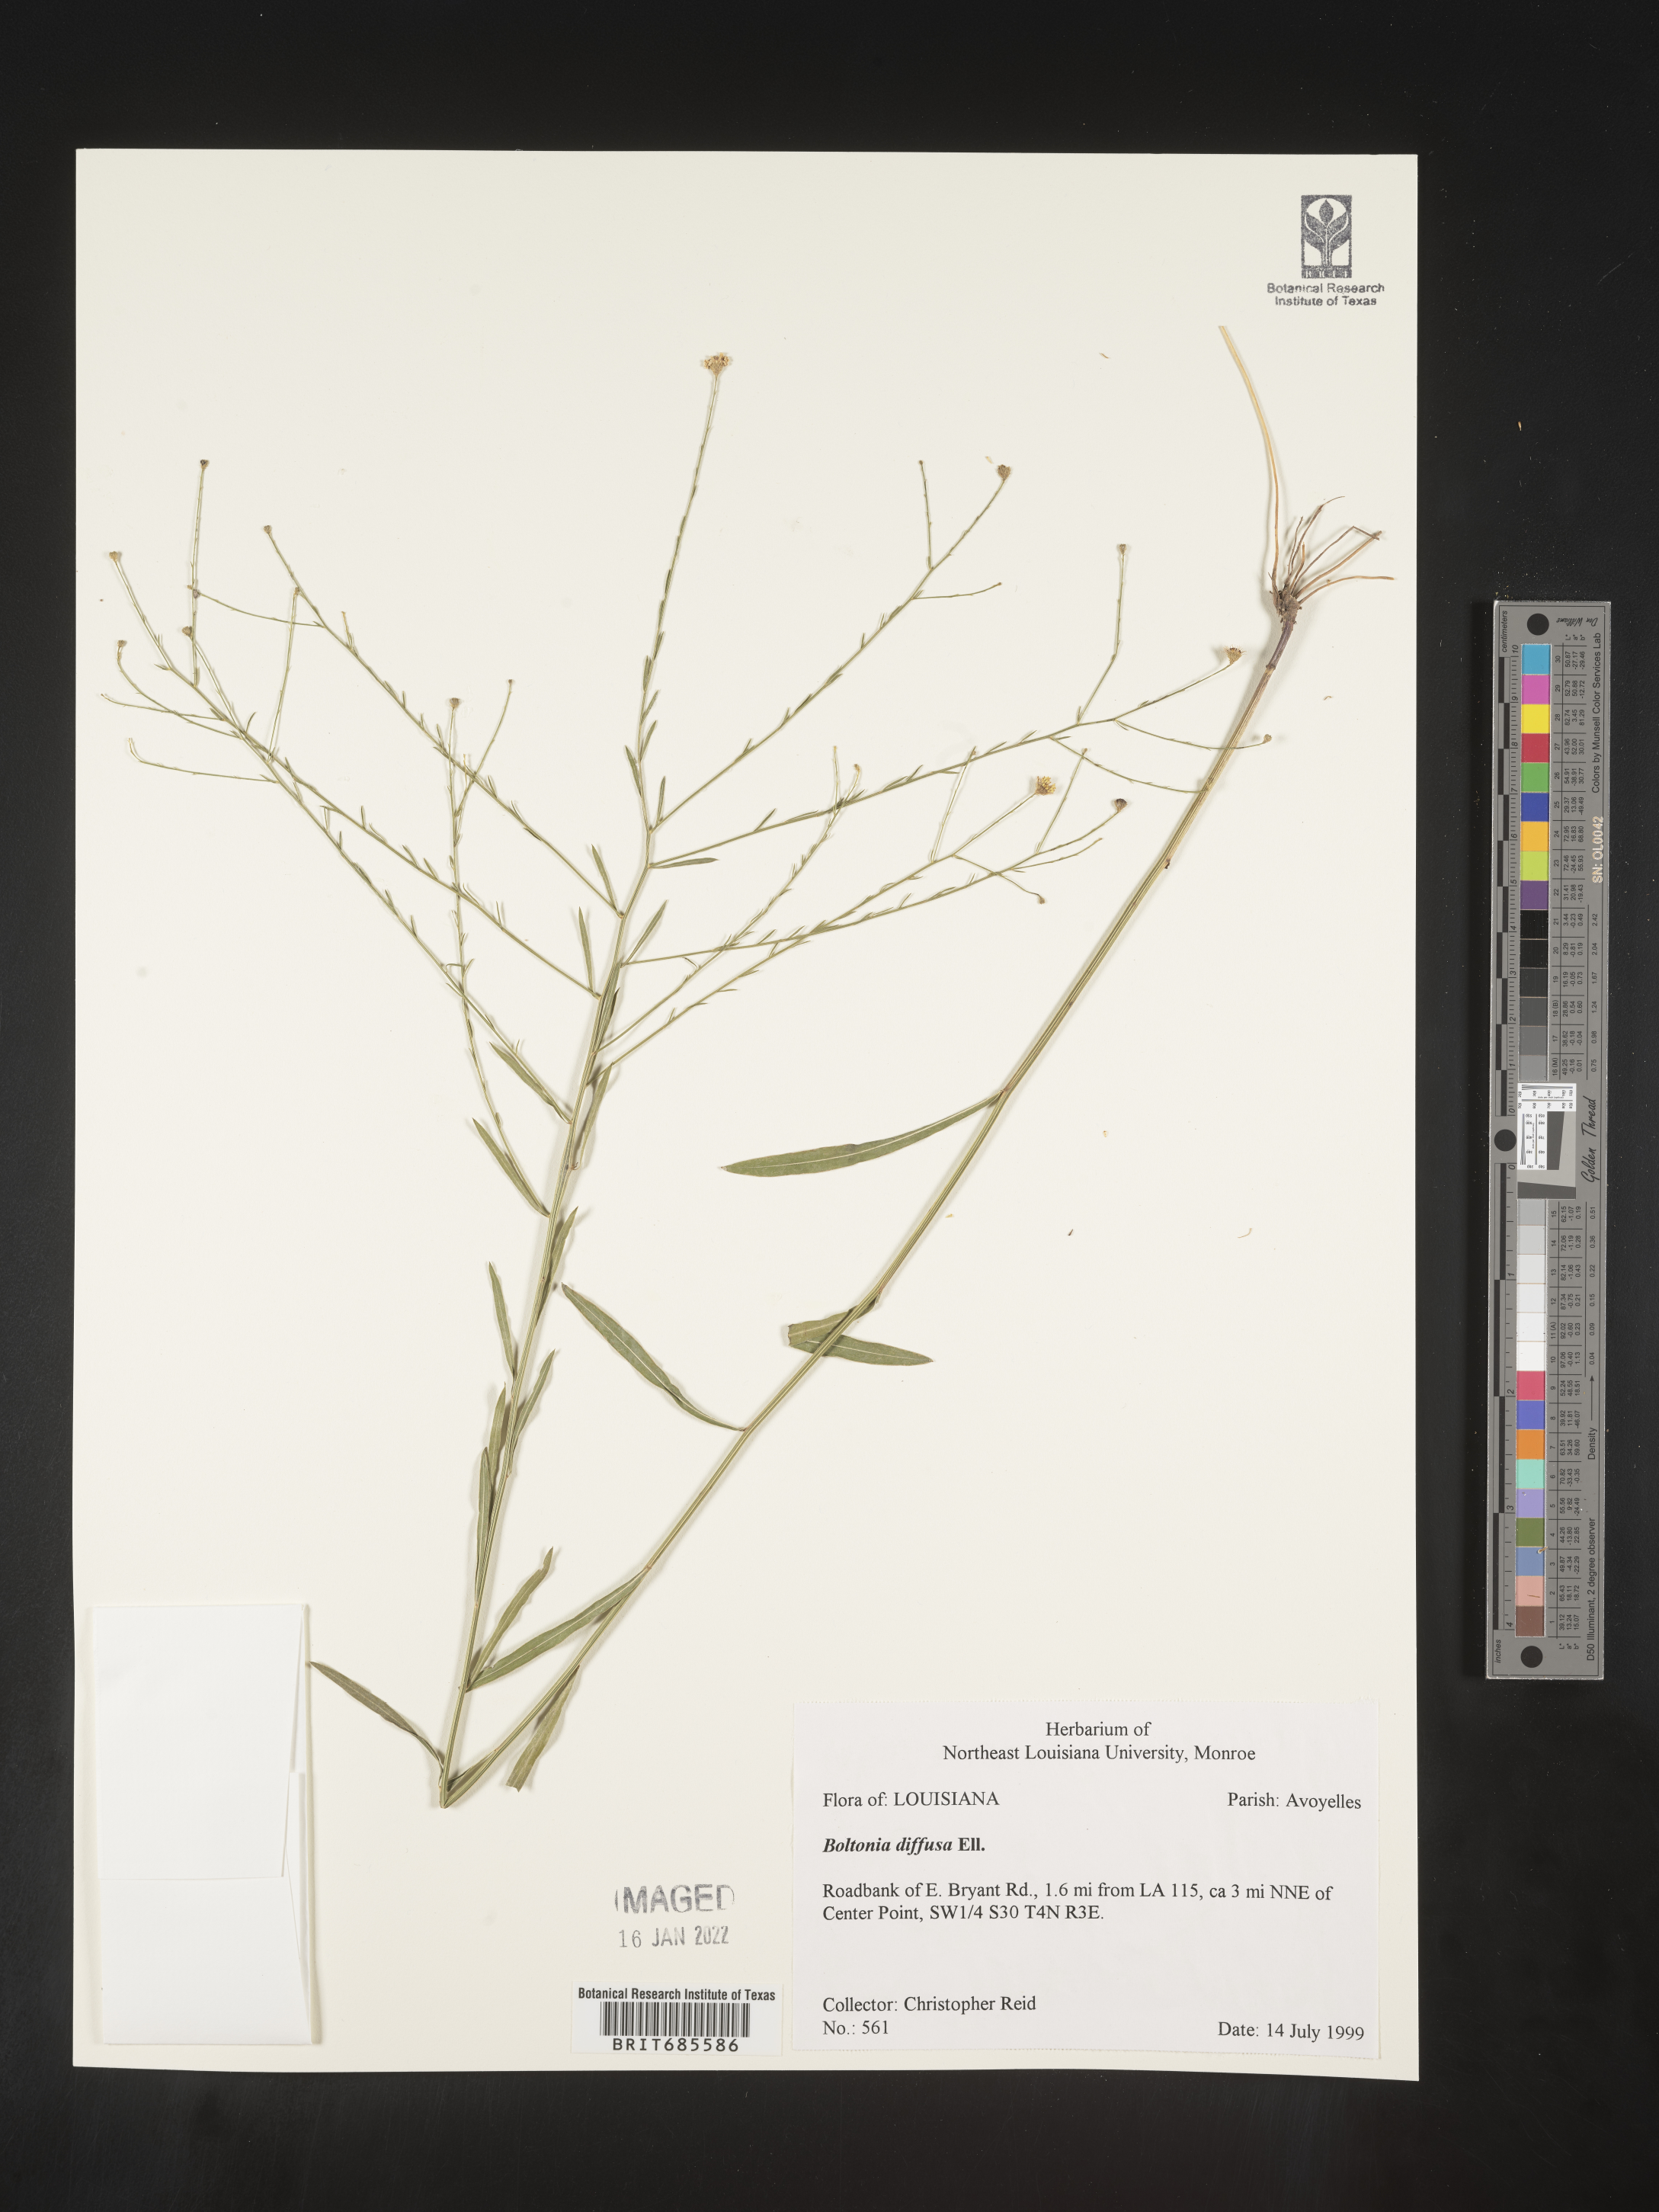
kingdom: Plantae
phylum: Tracheophyta
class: Magnoliopsida
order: Asterales
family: Asteraceae
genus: Boltonia
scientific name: Boltonia diffusa
